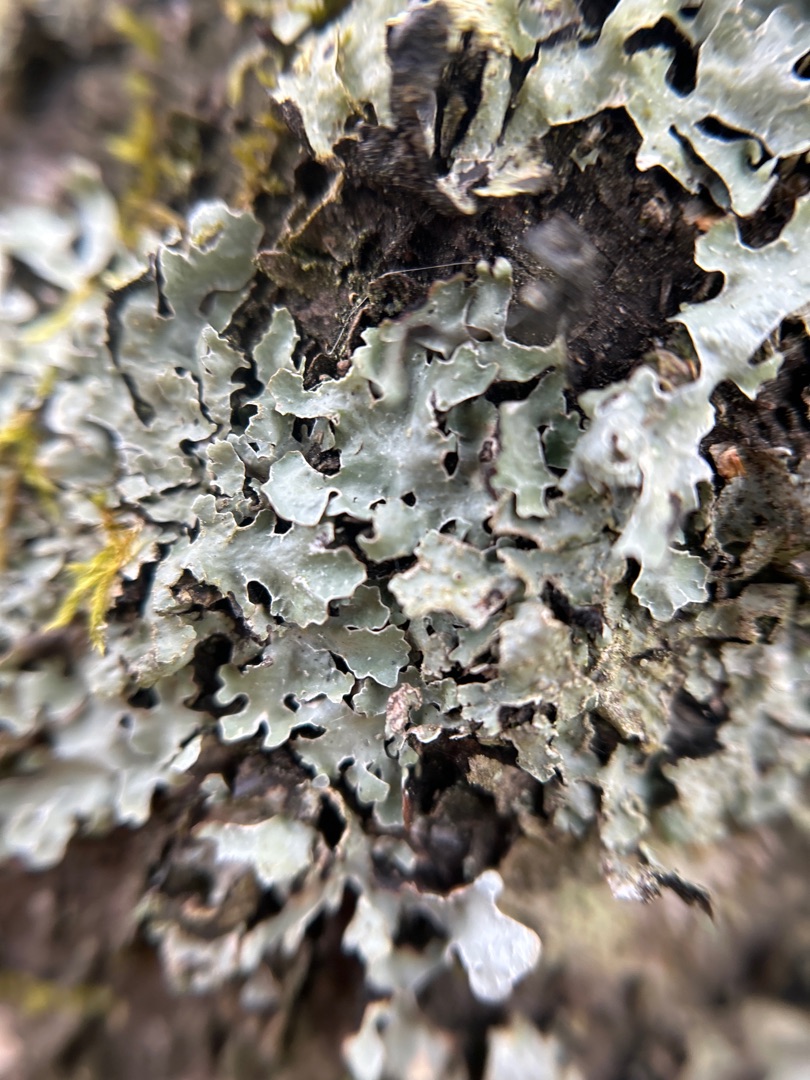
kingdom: Fungi
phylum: Ascomycota
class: Lecanoromycetes
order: Lecanorales
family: Parmeliaceae
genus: Parmelia
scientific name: Parmelia sulcata
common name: Rynket skållav
